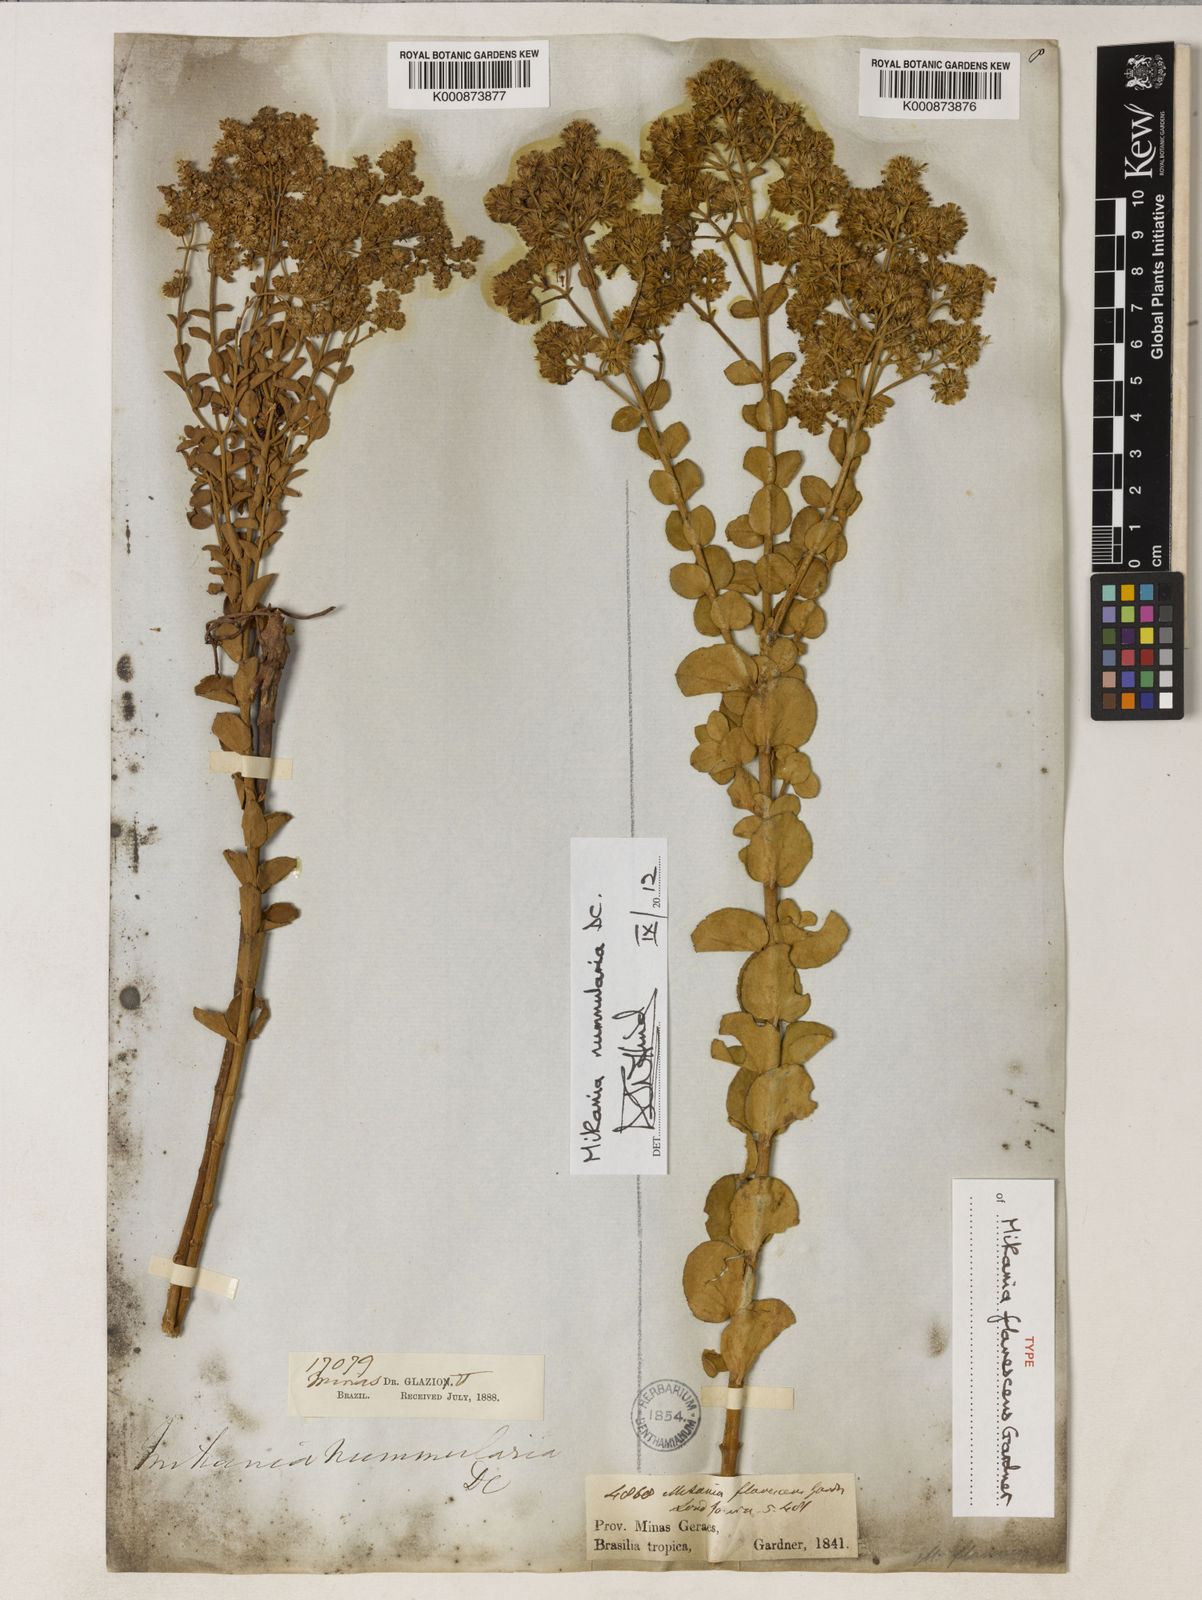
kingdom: Plantae
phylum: Tracheophyta
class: Magnoliopsida
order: Asterales
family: Asteraceae
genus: Mikania
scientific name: Mikania nummularia
